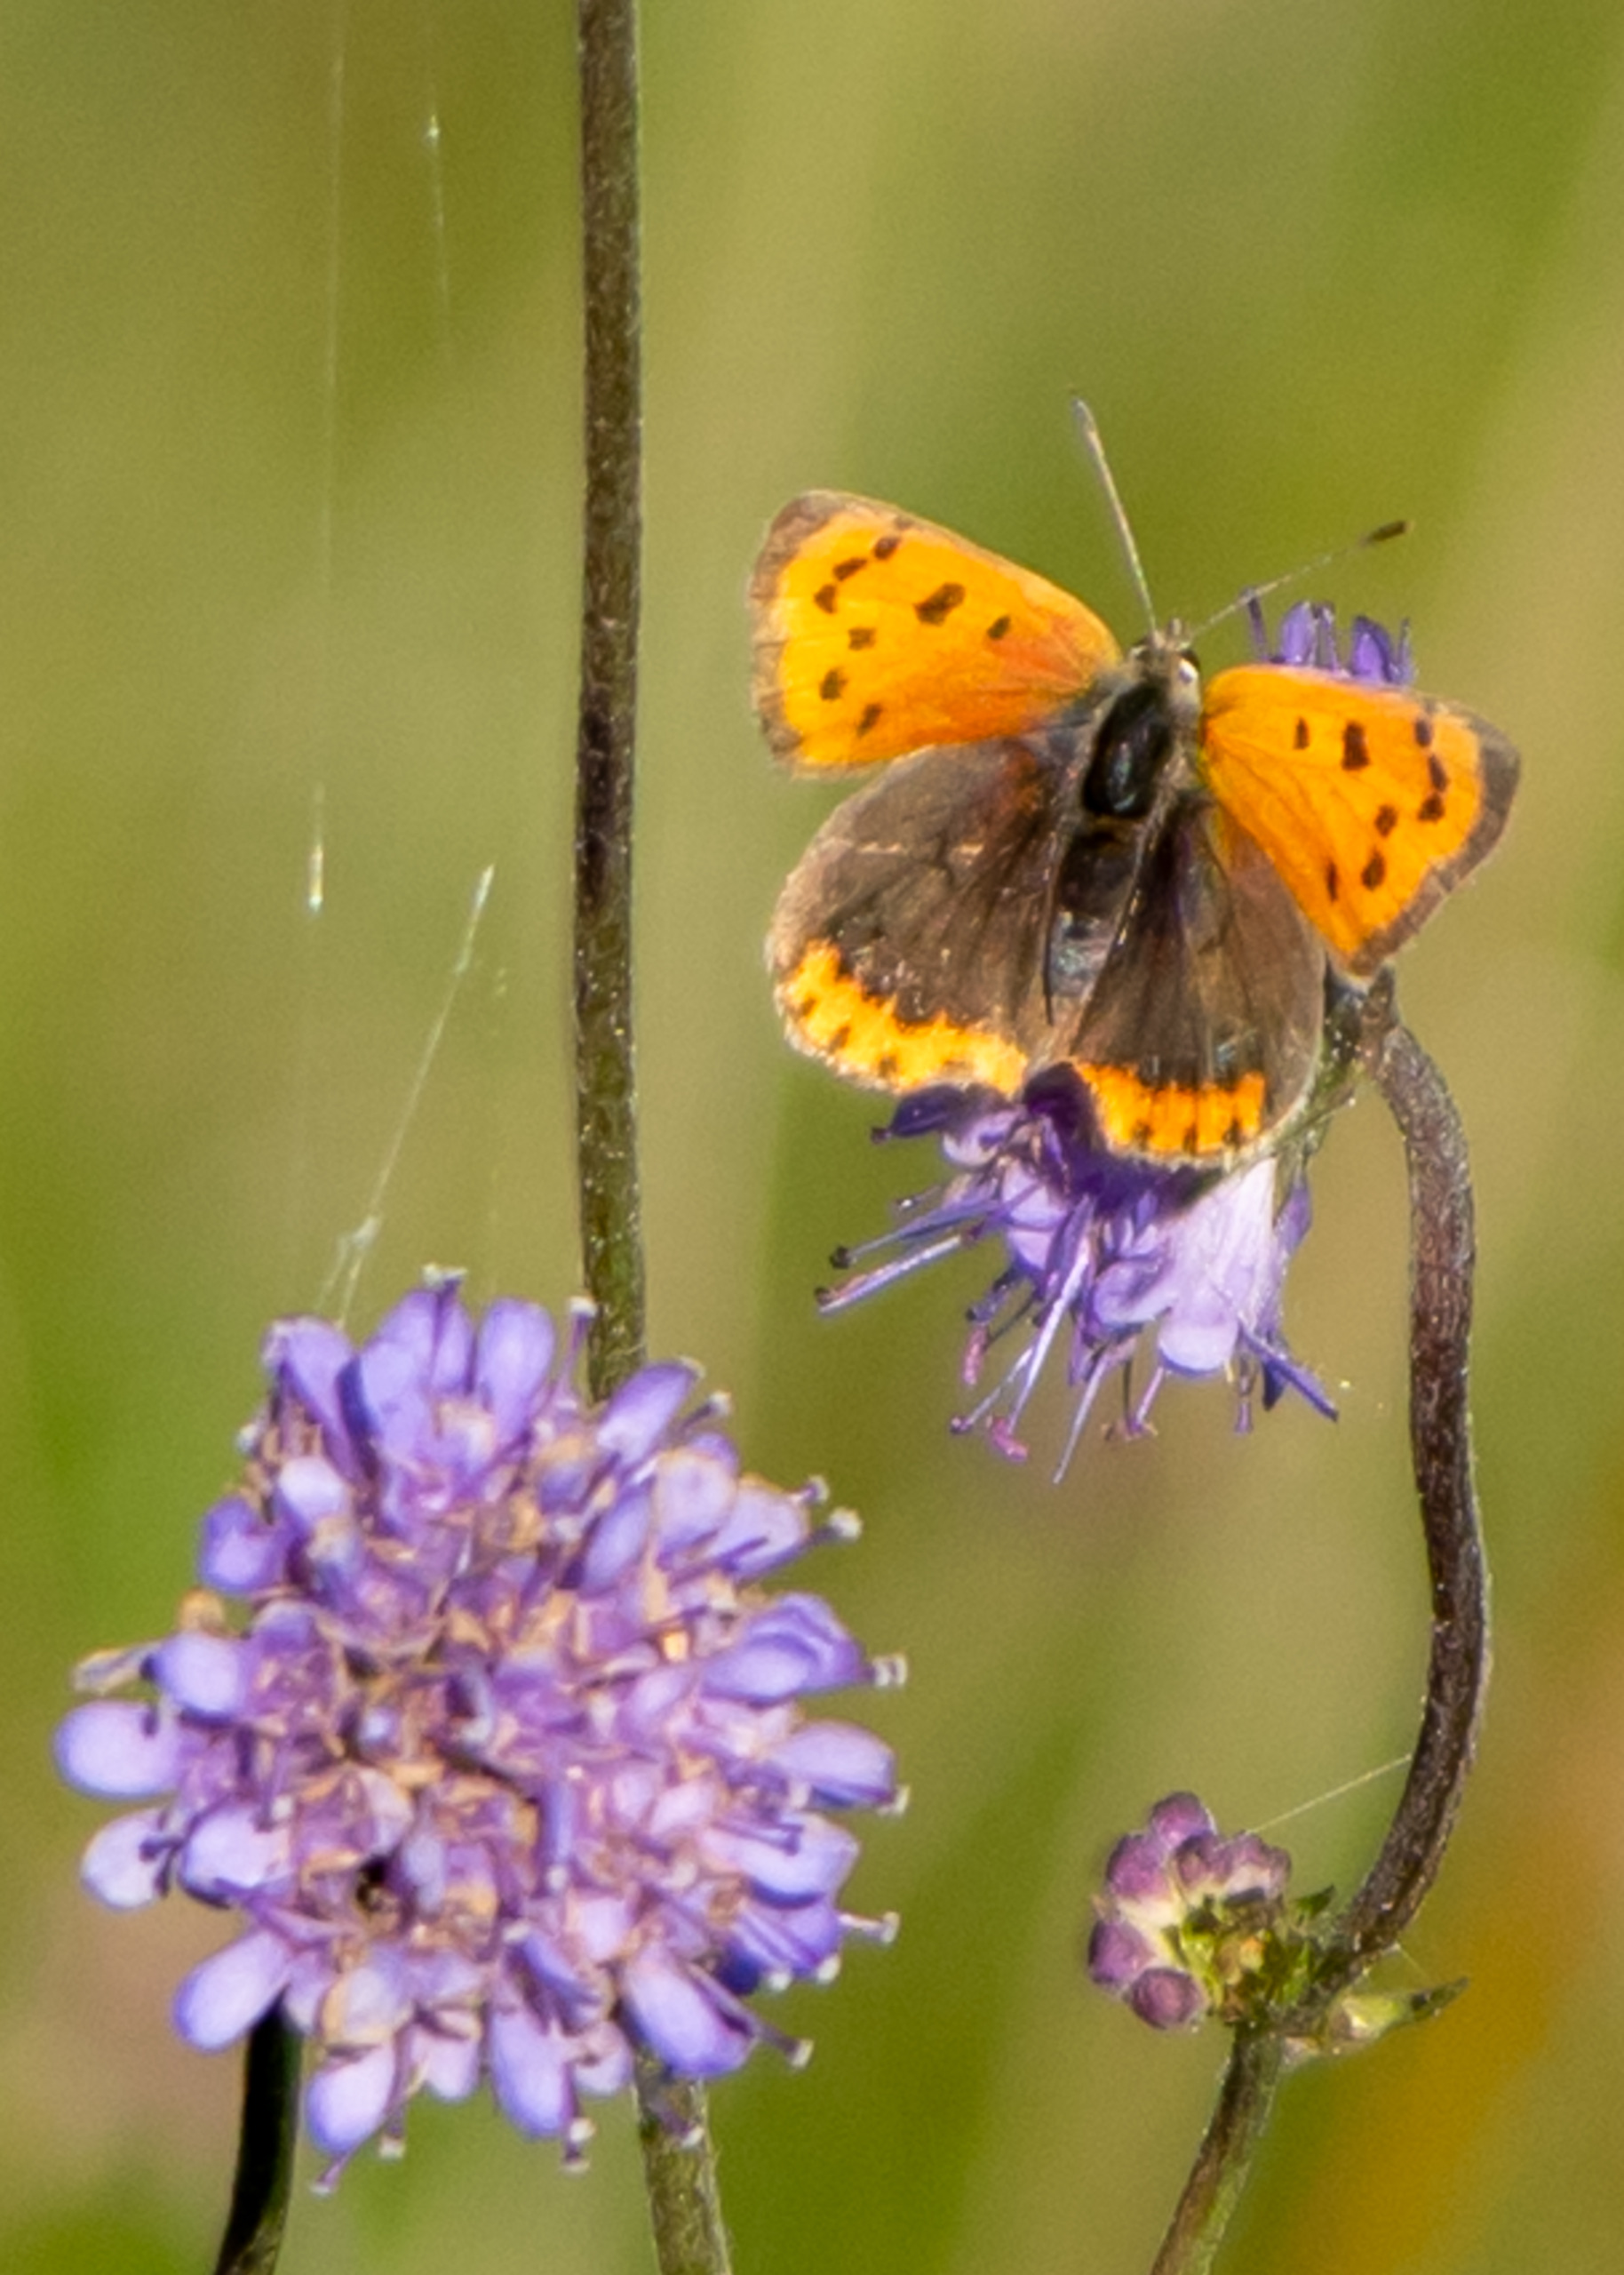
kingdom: Animalia
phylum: Arthropoda
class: Insecta
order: Lepidoptera
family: Lycaenidae
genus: Lycaena
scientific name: Lycaena phlaeas
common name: Lille ildfugl
